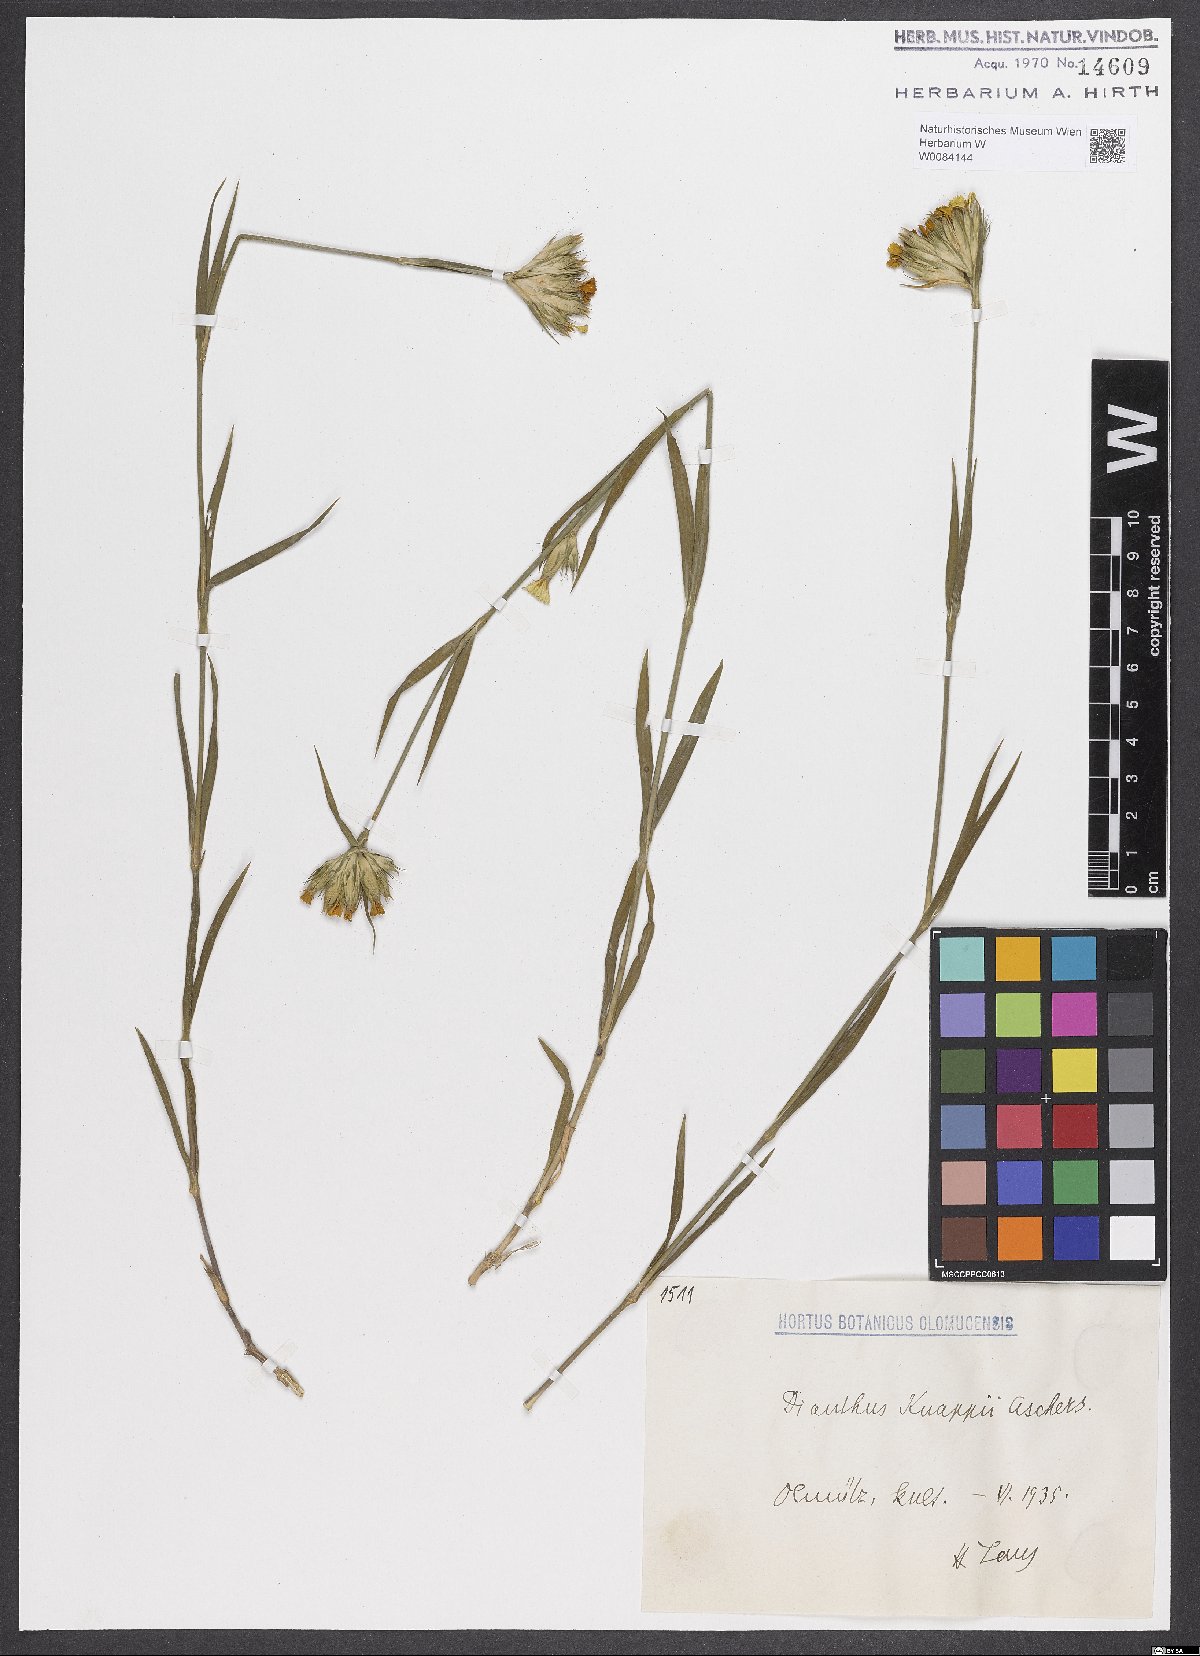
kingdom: Plantae
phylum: Tracheophyta
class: Magnoliopsida
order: Caryophyllales
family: Caryophyllaceae
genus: Dianthus
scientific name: Dianthus balbisii
